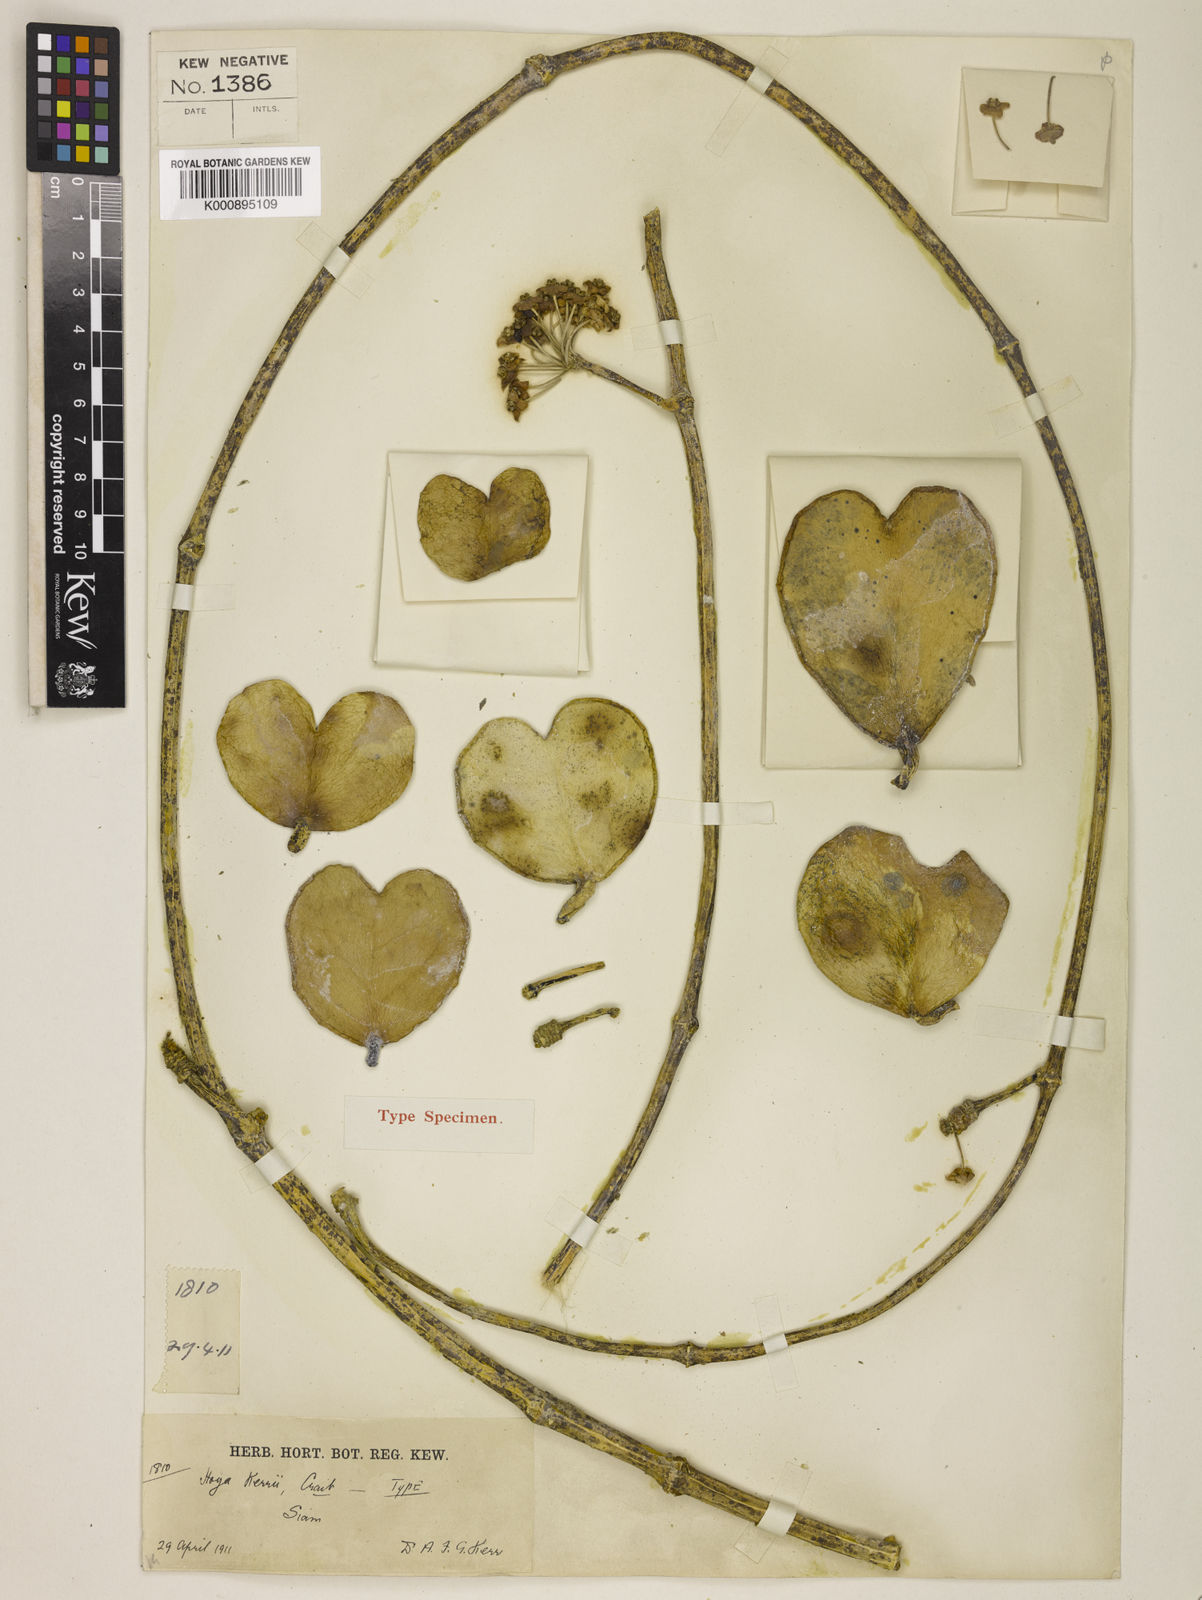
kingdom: Plantae
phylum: Tracheophyta
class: Magnoliopsida
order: Gentianales
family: Apocynaceae
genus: Hoya
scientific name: Hoya kerrii
